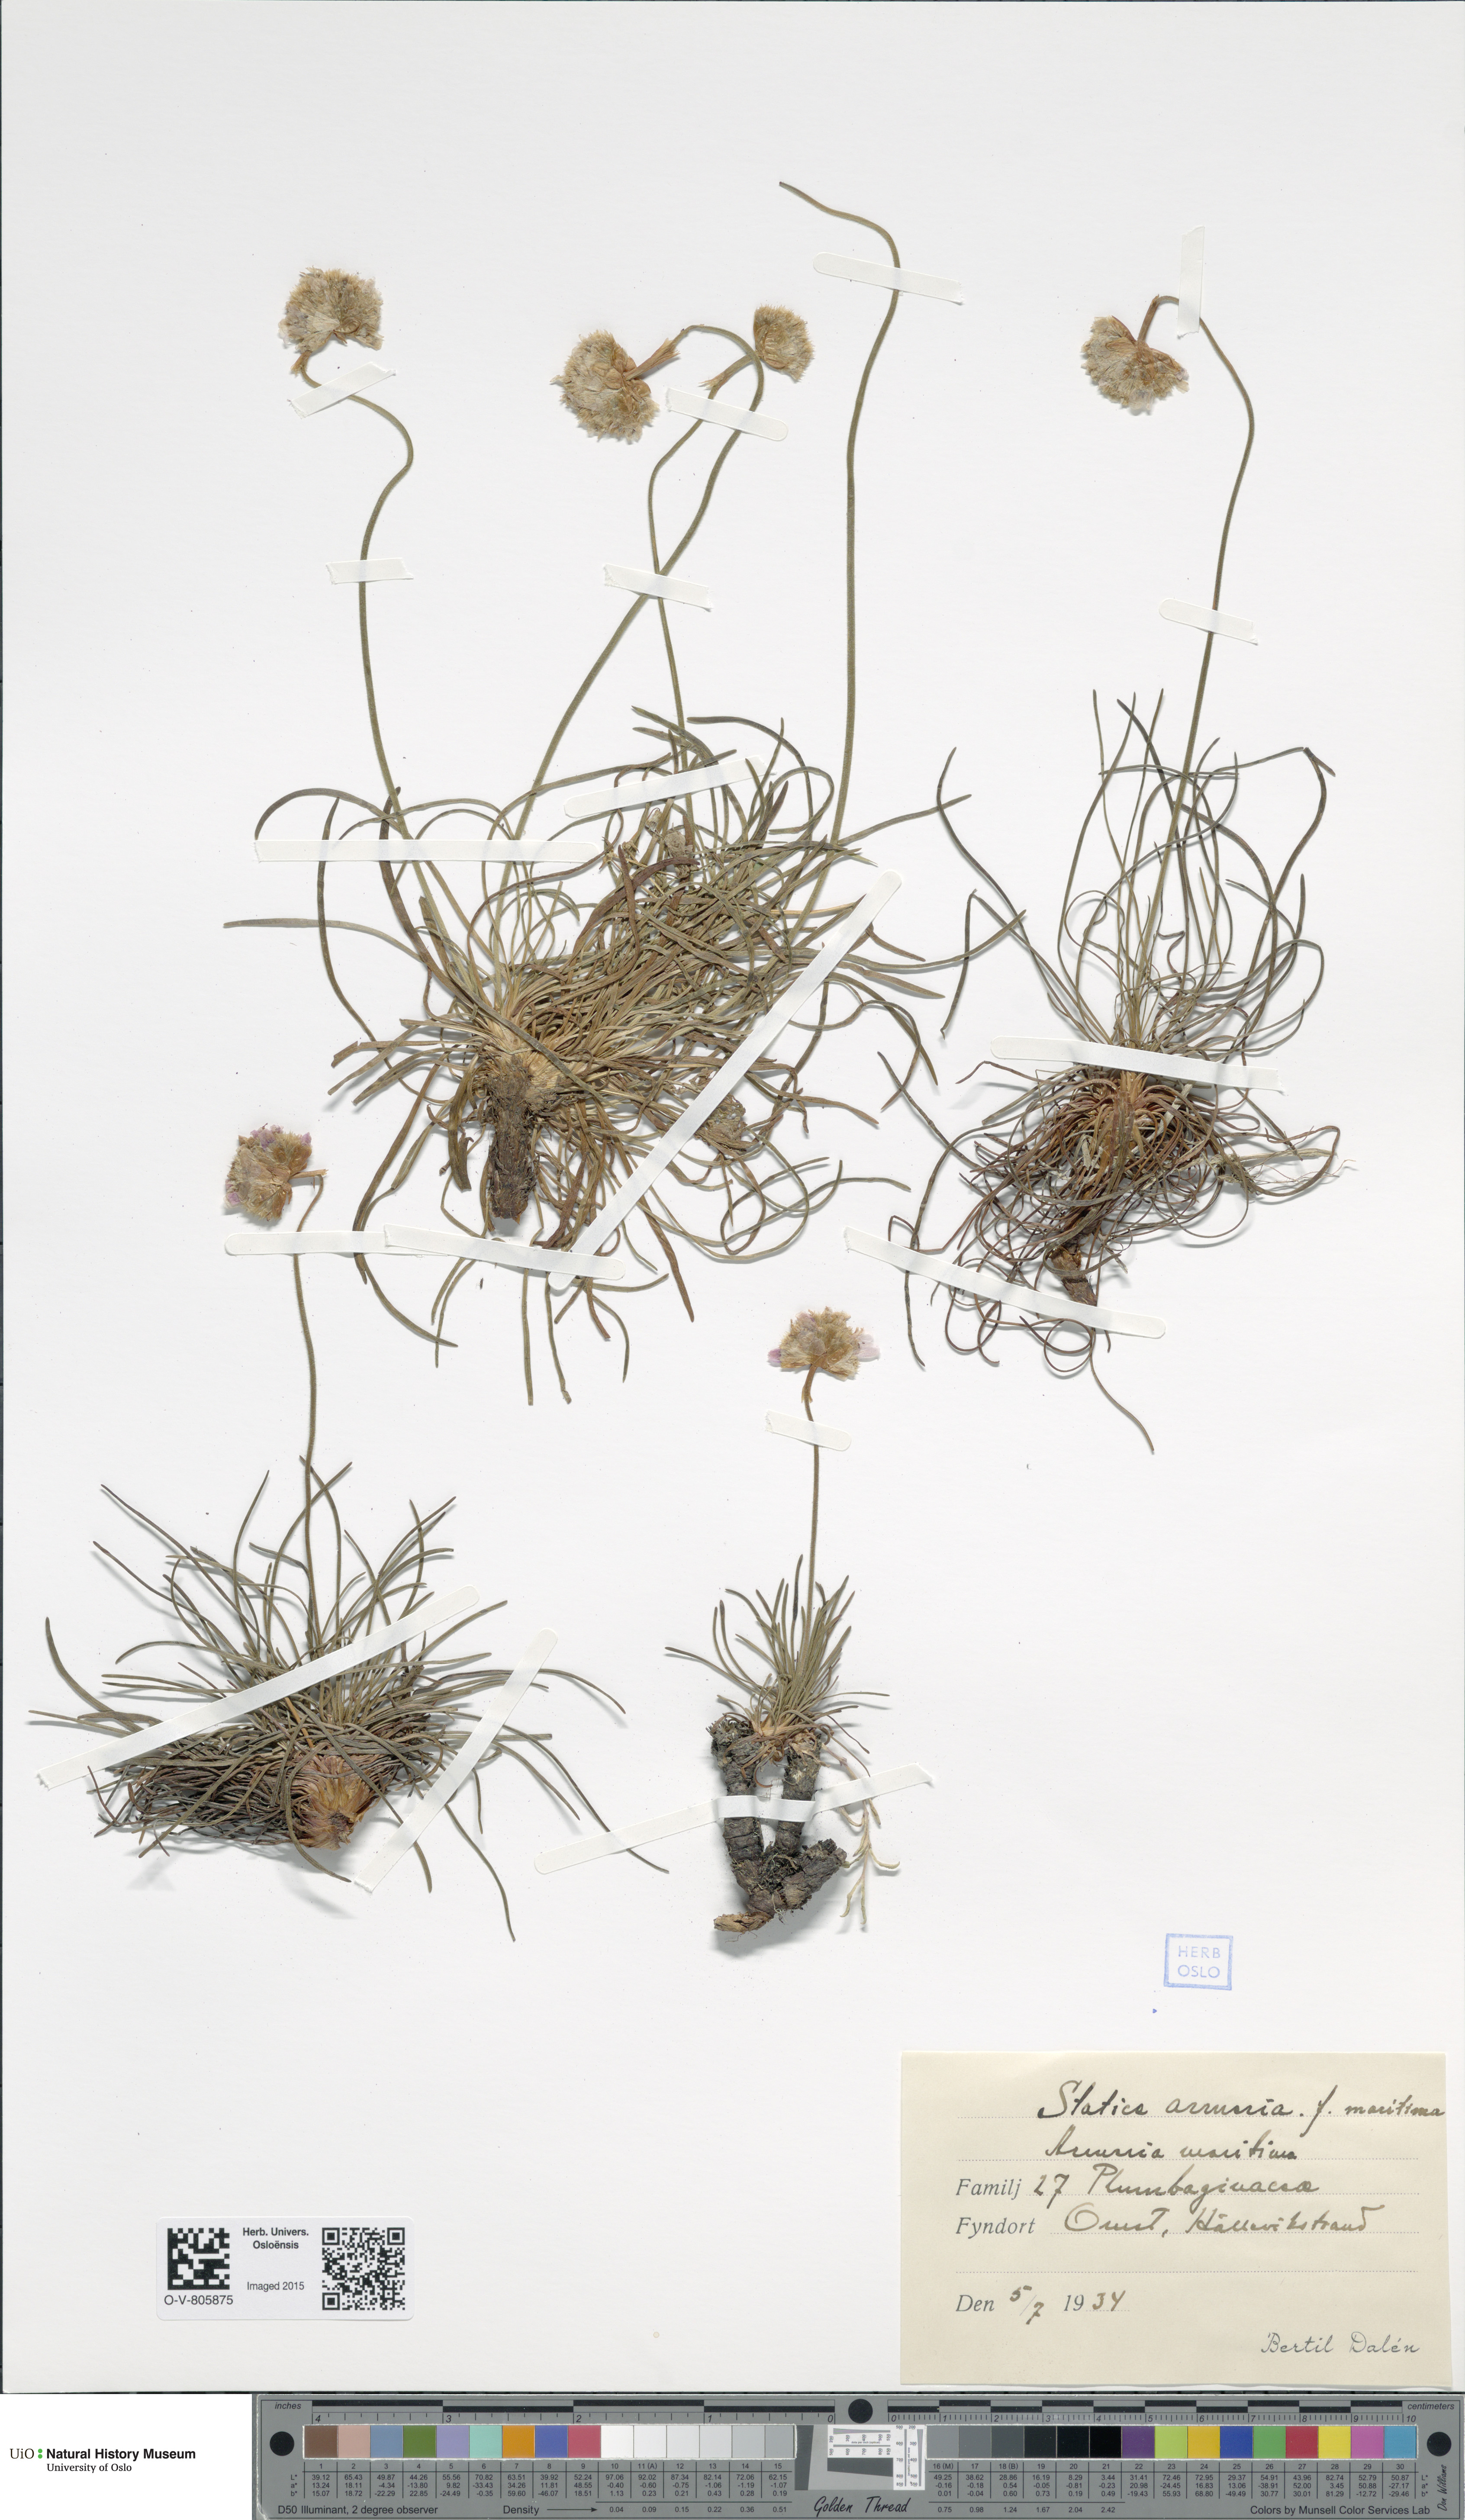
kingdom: Plantae
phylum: Tracheophyta
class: Magnoliopsida
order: Caryophyllales
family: Plumbaginaceae
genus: Armeria
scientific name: Armeria maritima
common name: Thrift
